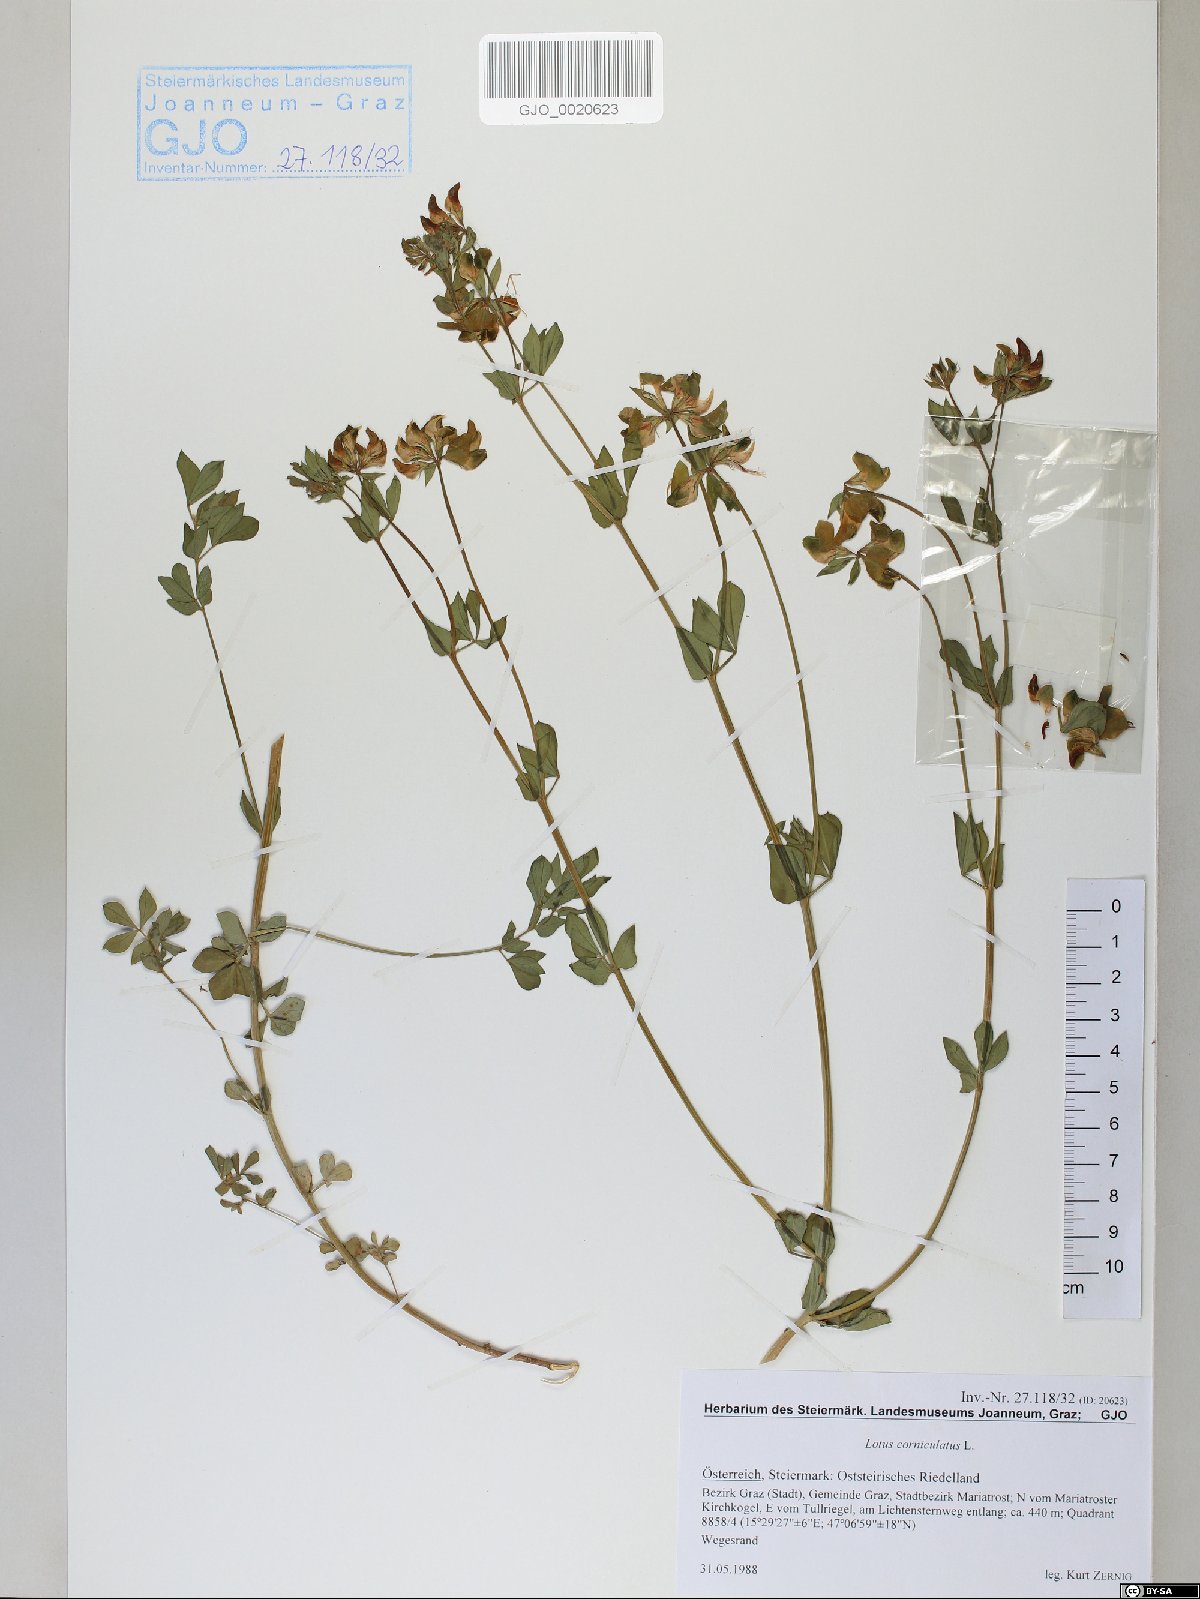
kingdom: Plantae
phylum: Tracheophyta
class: Magnoliopsida
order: Fabales
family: Fabaceae
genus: Lotus
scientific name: Lotus corniculatus
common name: Common bird's-foot-trefoil
